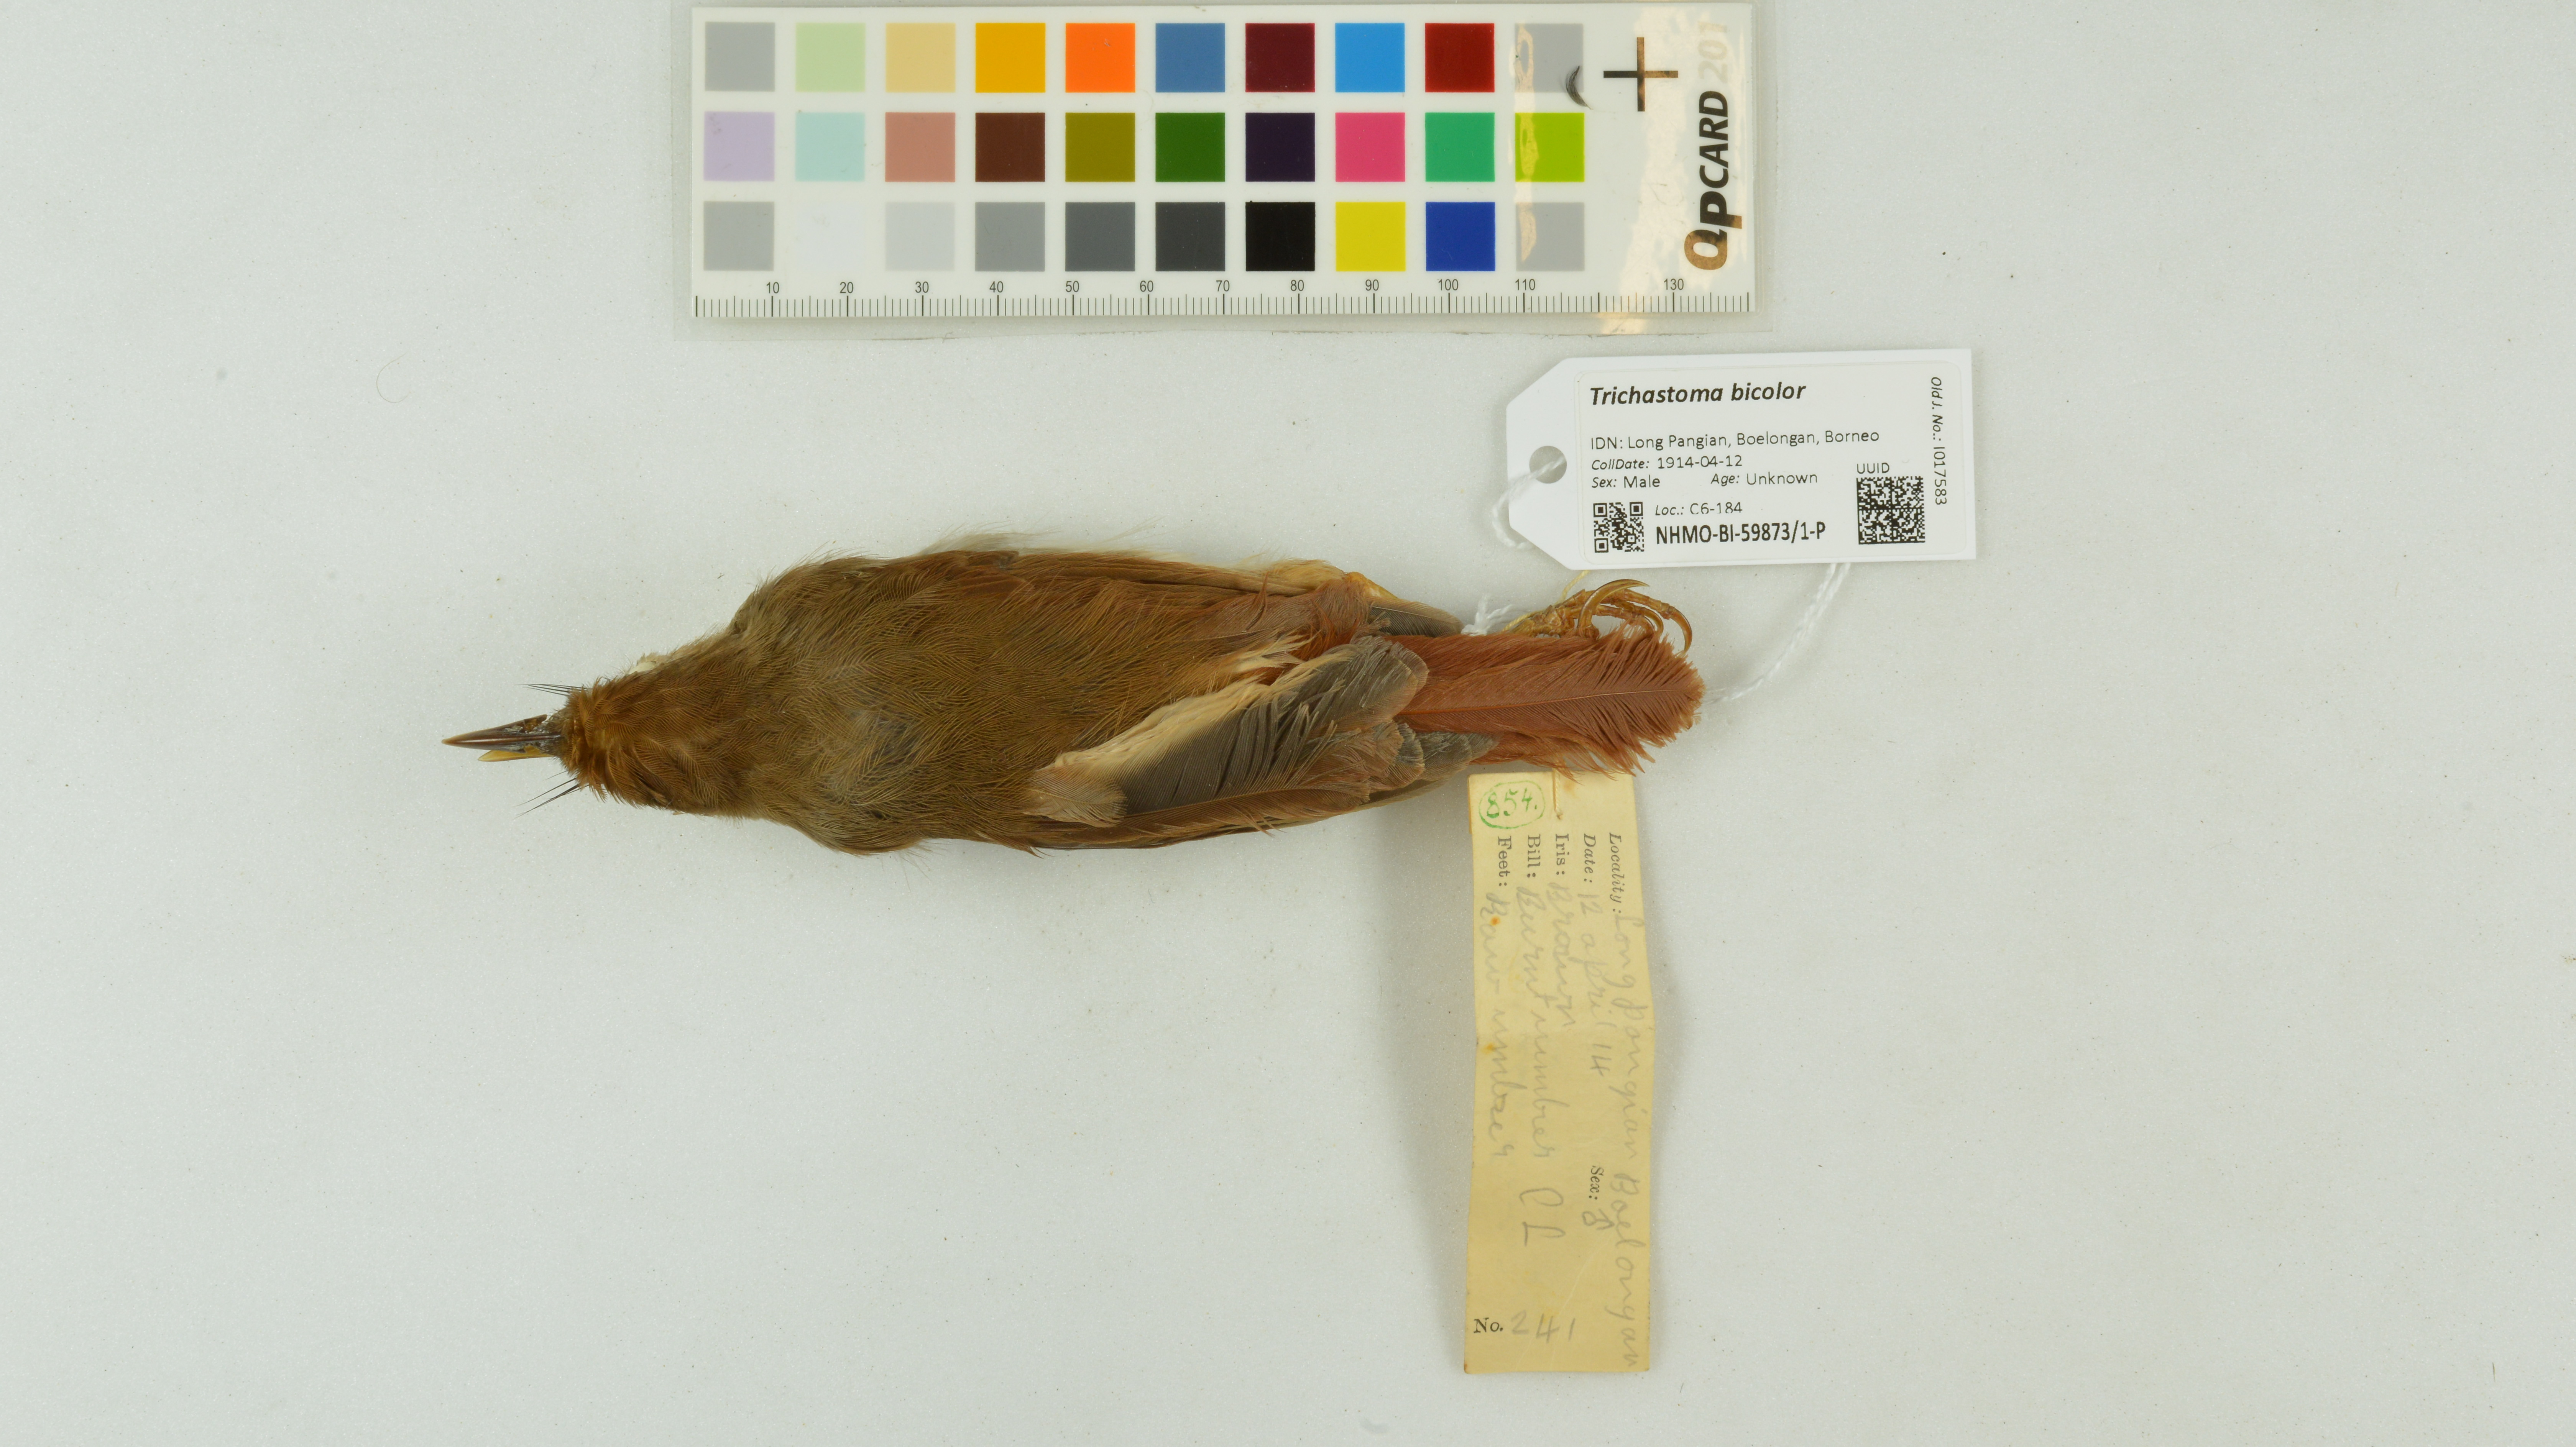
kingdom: Animalia
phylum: Chordata
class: Aves
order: Passeriformes
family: Pellorneidae
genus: Trichastoma
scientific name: Trichastoma bicolor
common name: Ferruginous babbler
